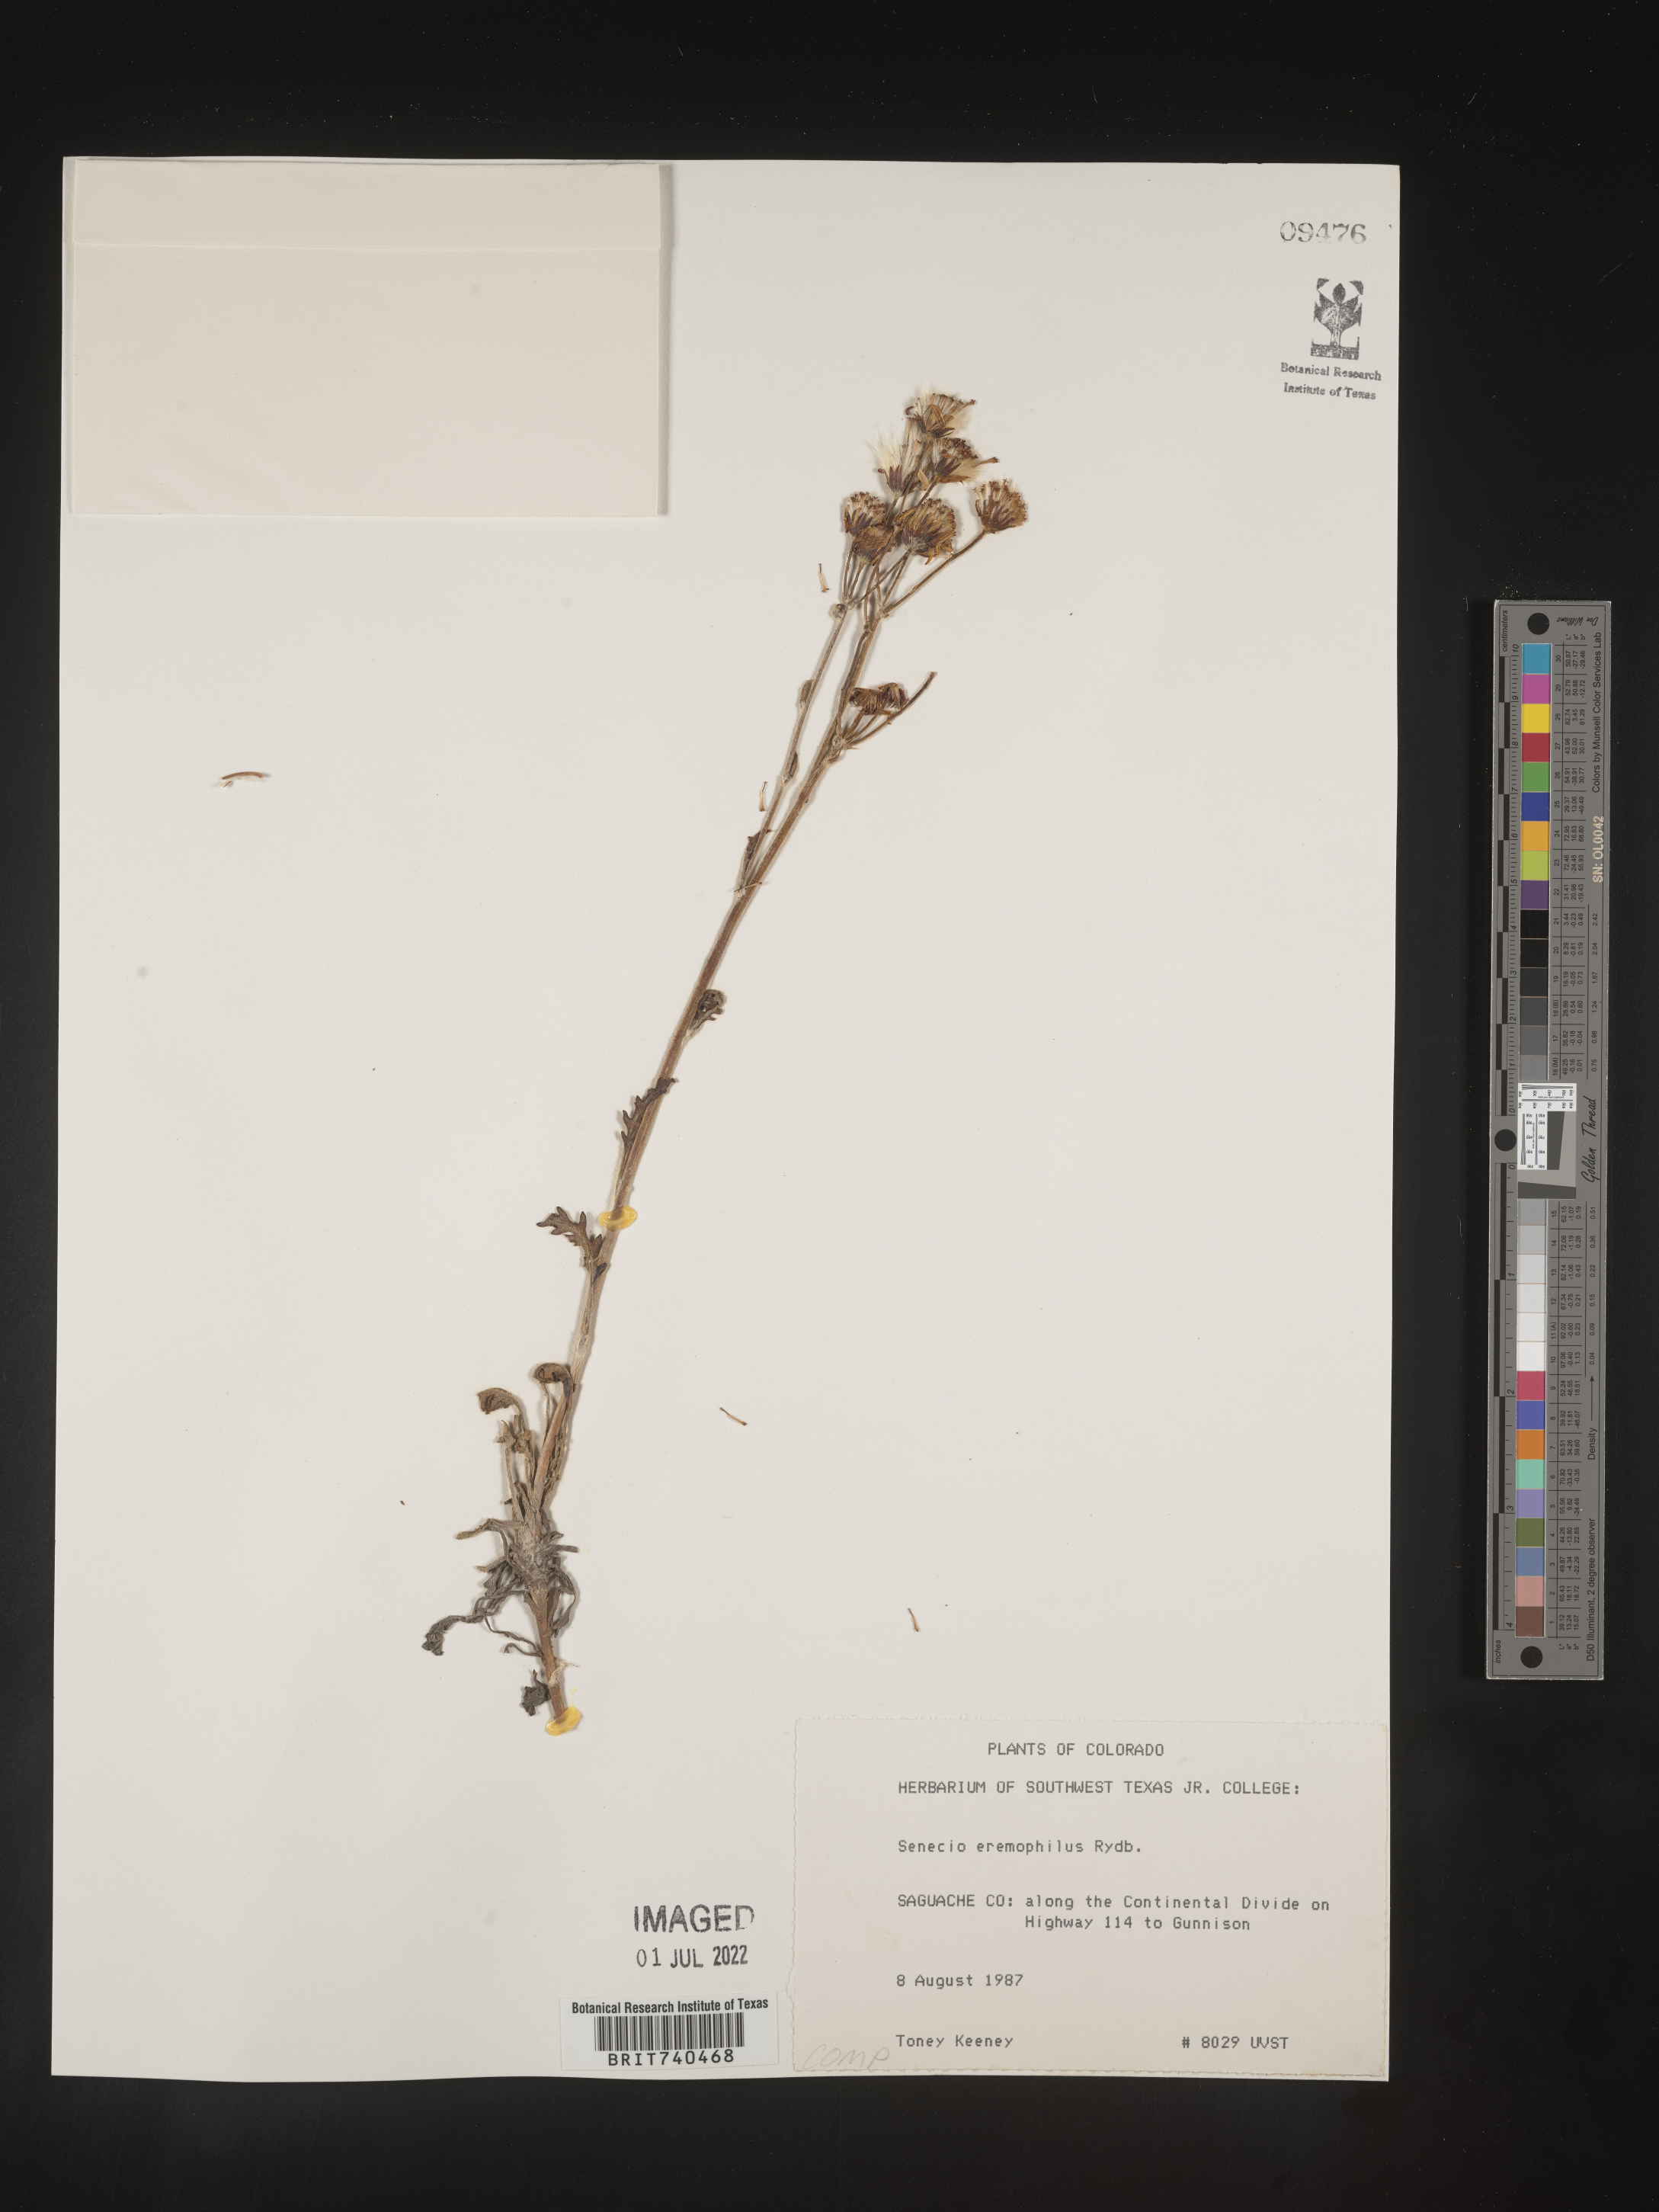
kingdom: Plantae
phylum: Tracheophyta
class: Magnoliopsida
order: Asterales
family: Asteraceae
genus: Senecio
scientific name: Senecio eremophilus
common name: Desert ragwort
